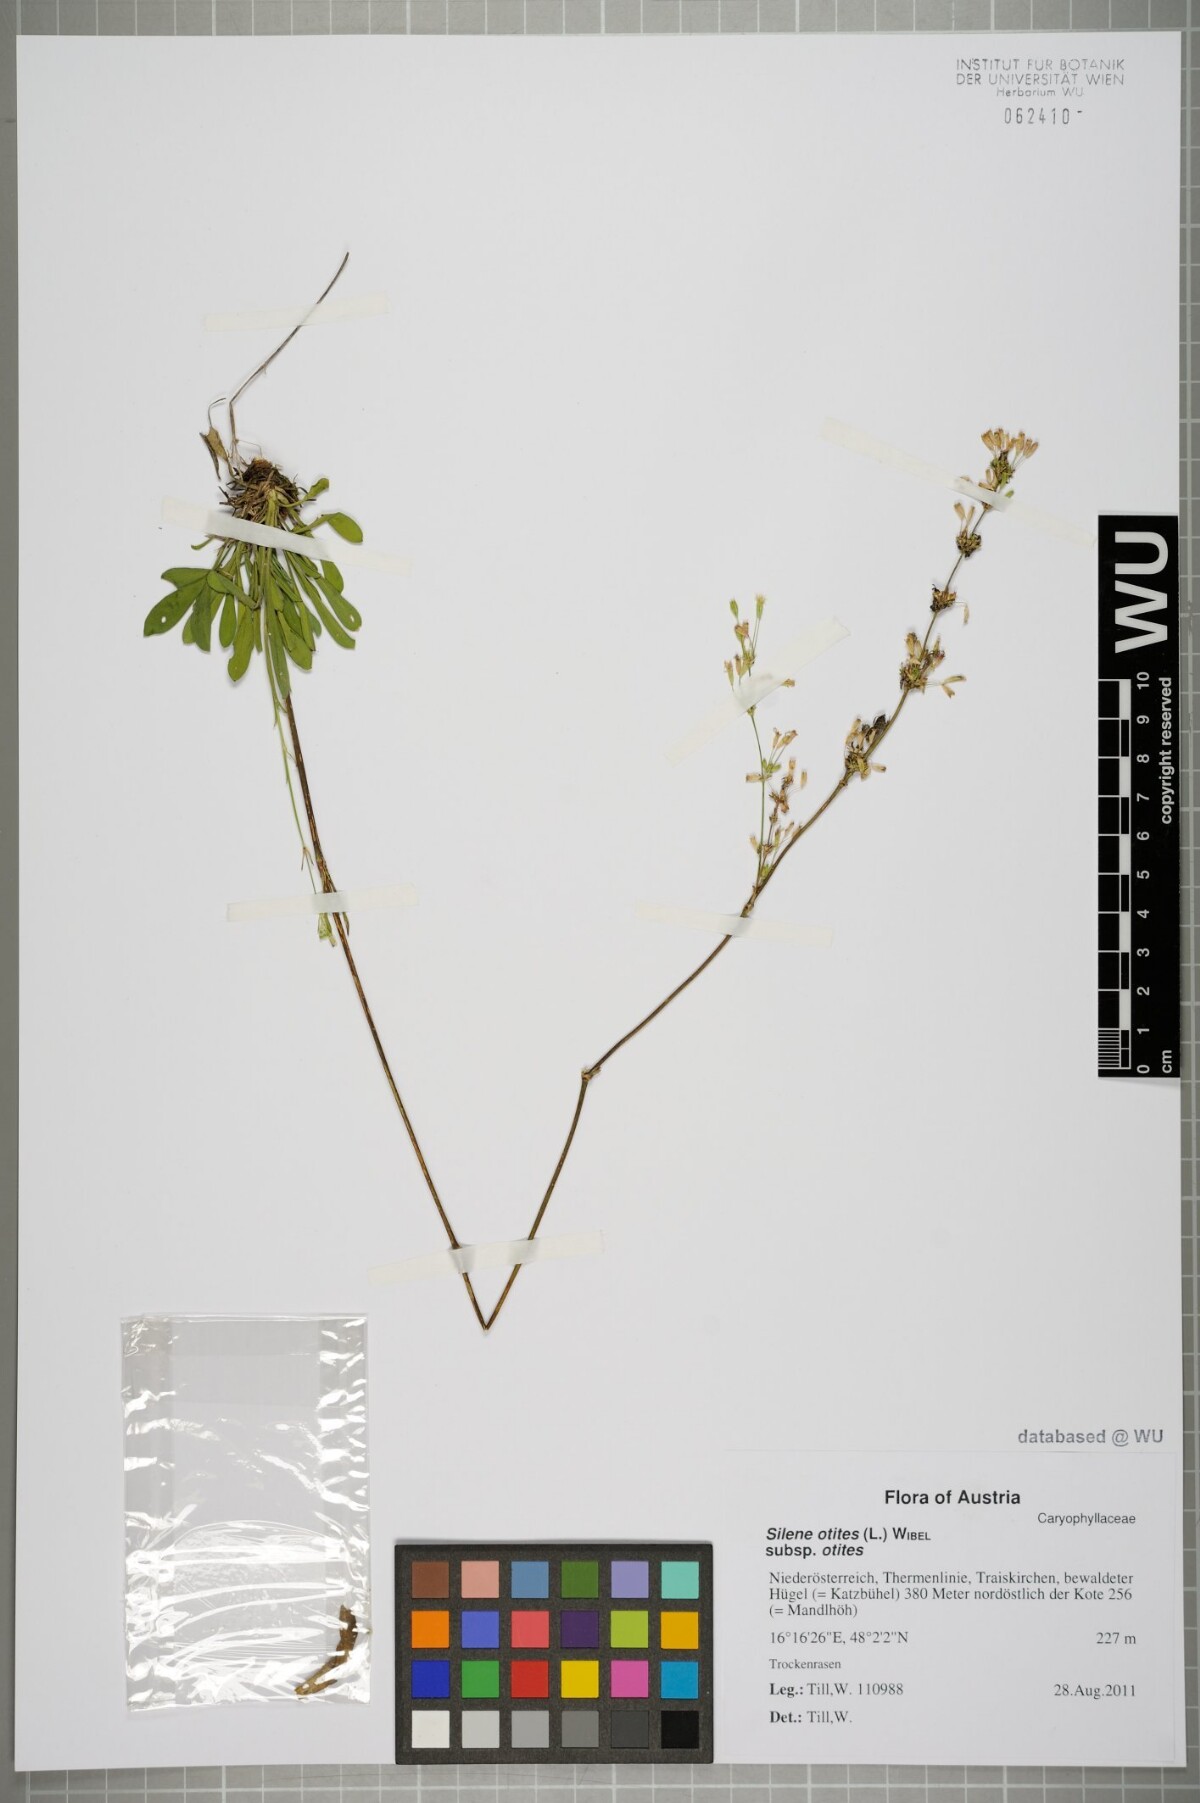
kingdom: Plantae
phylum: Tracheophyta
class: Magnoliopsida
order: Caryophyllales
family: Caryophyllaceae
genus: Silene
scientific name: Silene otites
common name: Spanish catchfly
